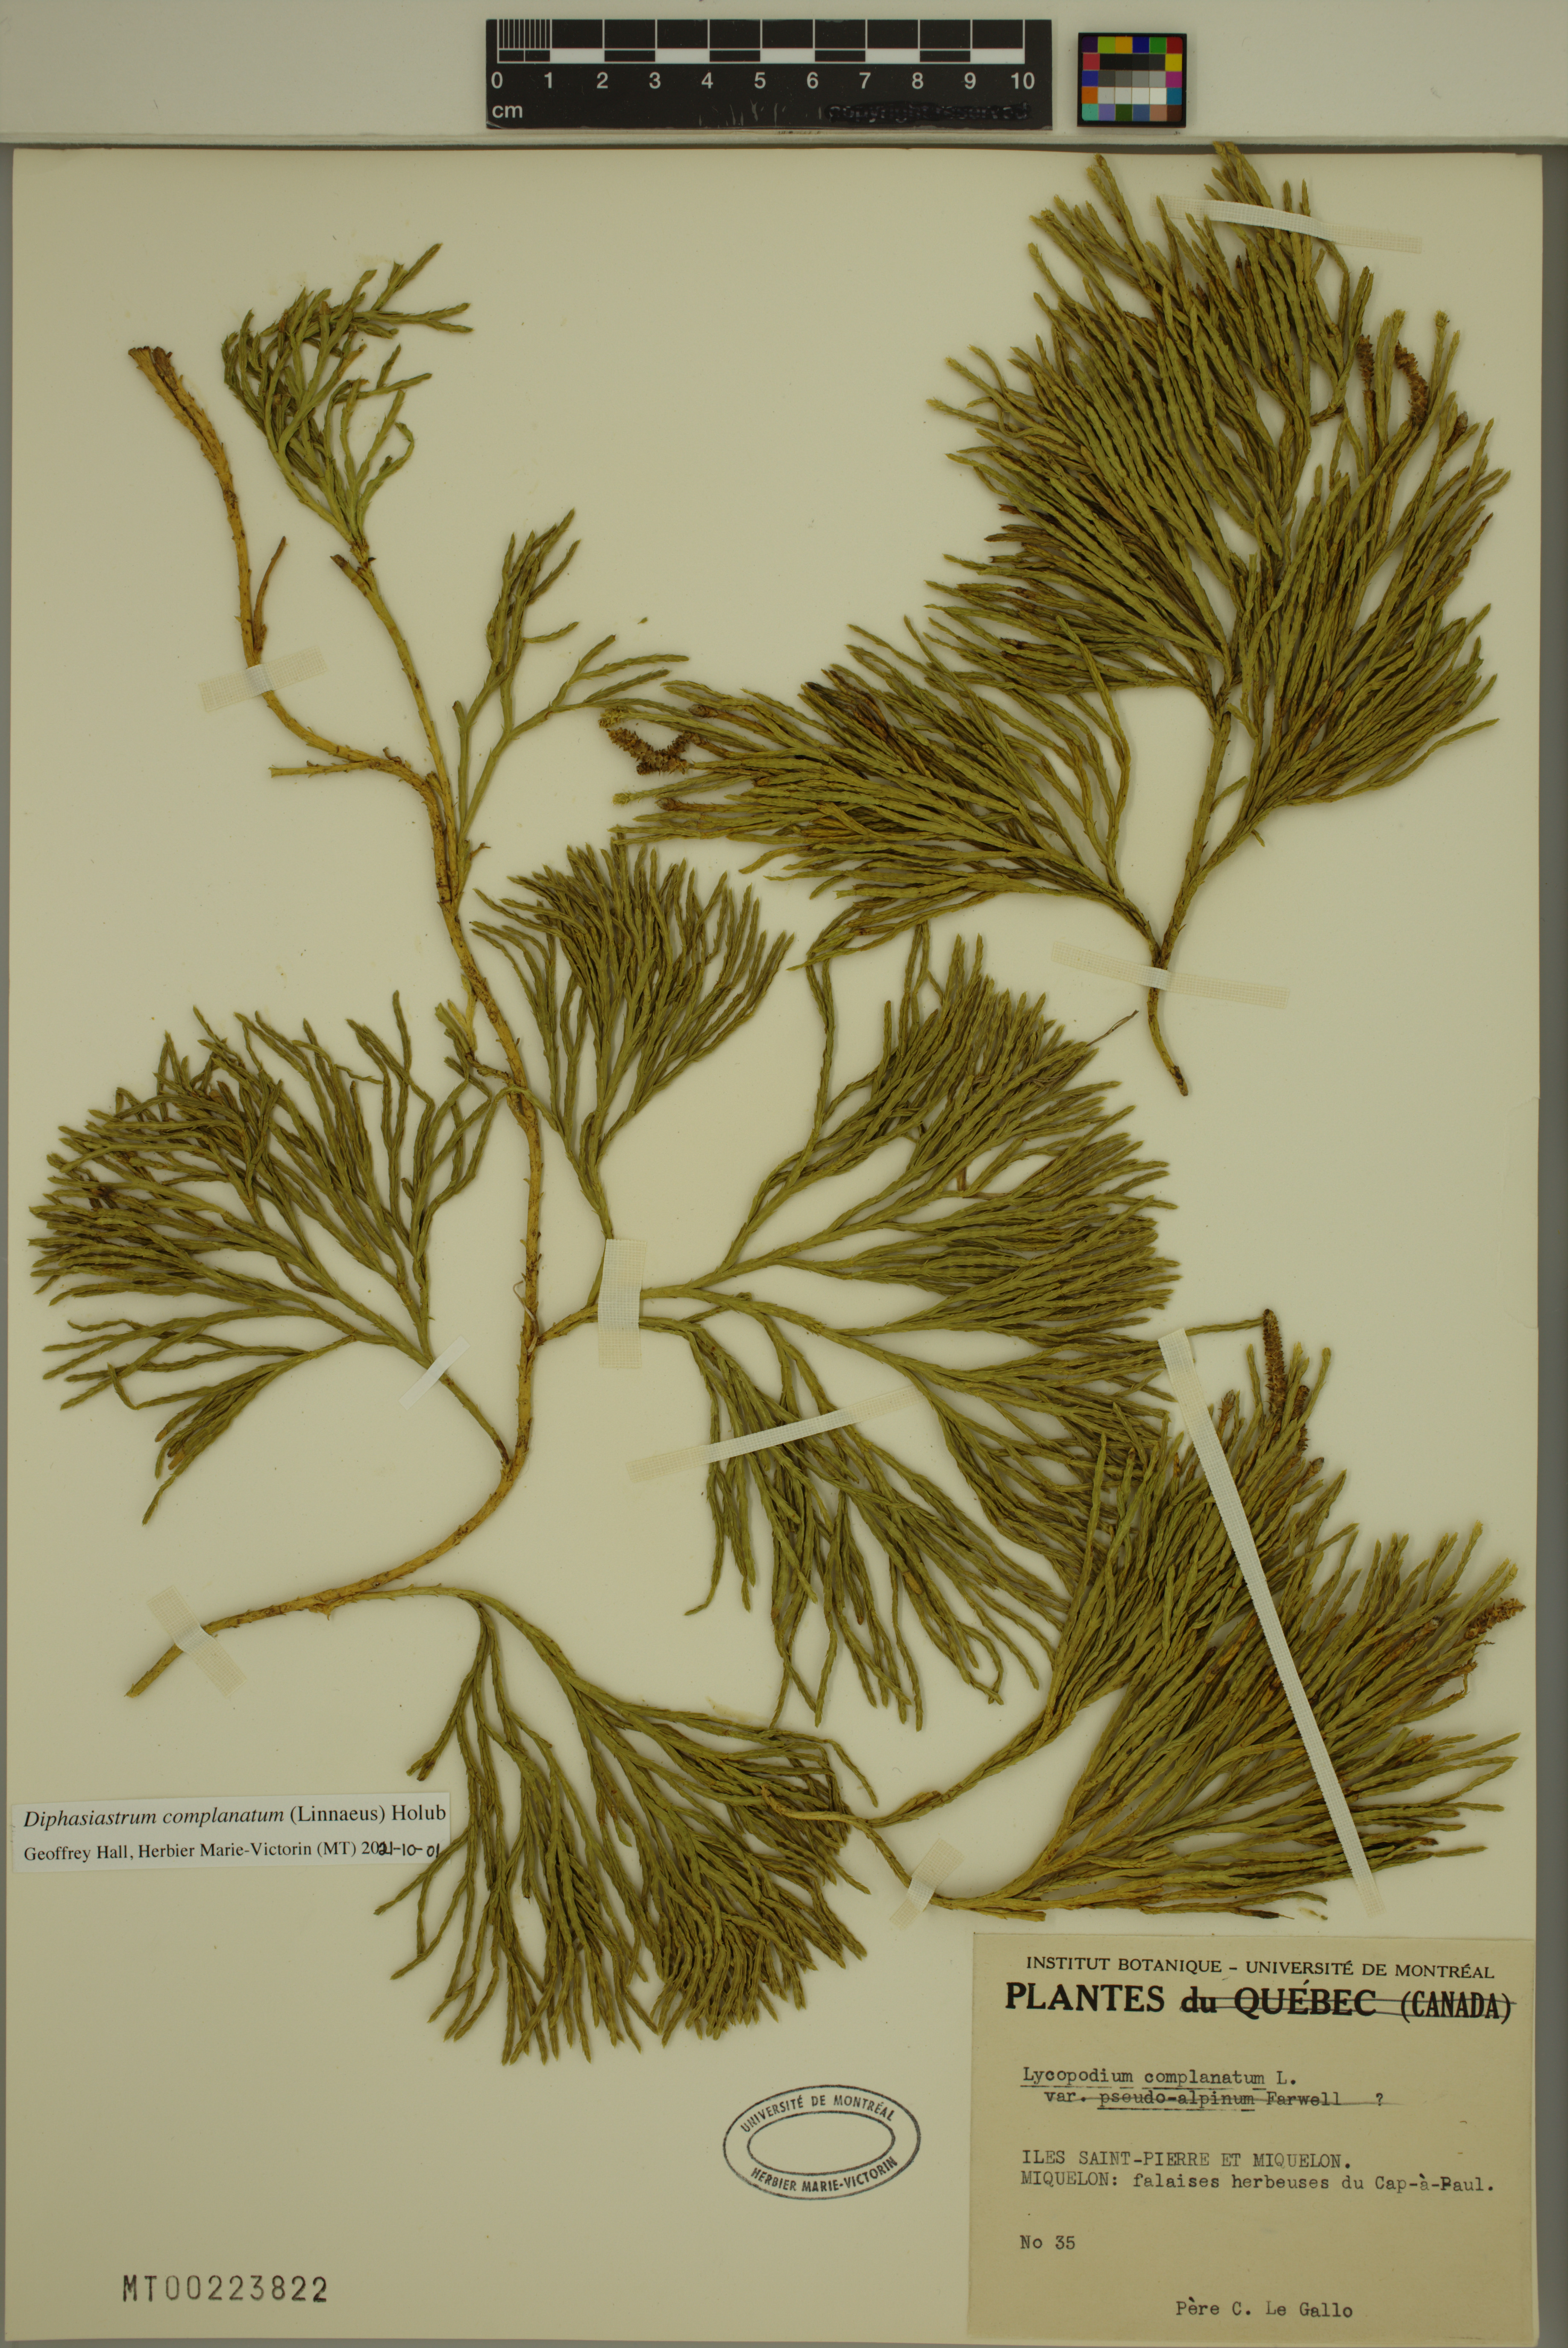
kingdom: Plantae
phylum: Tracheophyta
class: Lycopodiopsida
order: Lycopodiales
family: Lycopodiaceae
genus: Diphasiastrum
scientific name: Diphasiastrum complanatum
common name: Northern running-pine
